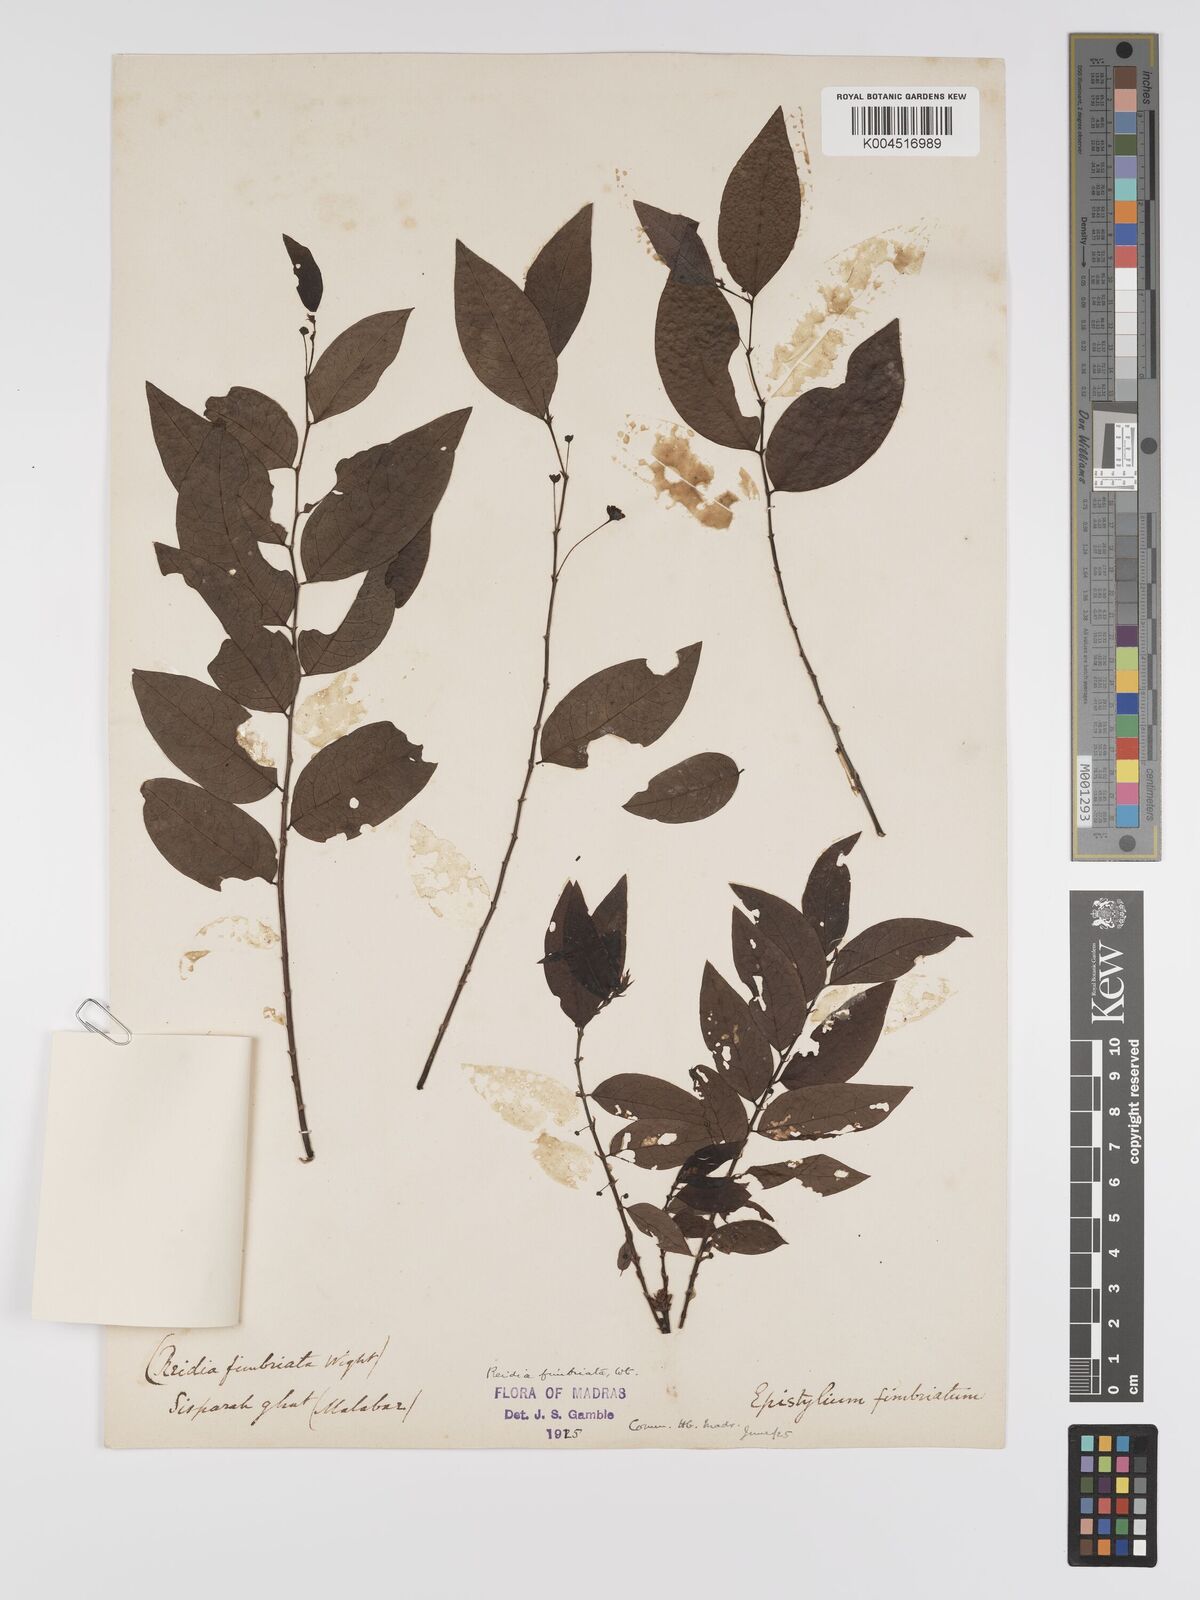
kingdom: Plantae
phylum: Tracheophyta
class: Magnoliopsida
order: Malpighiales
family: Phyllanthaceae
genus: Phyllanthus
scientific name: Phyllanthus fimbriatus
